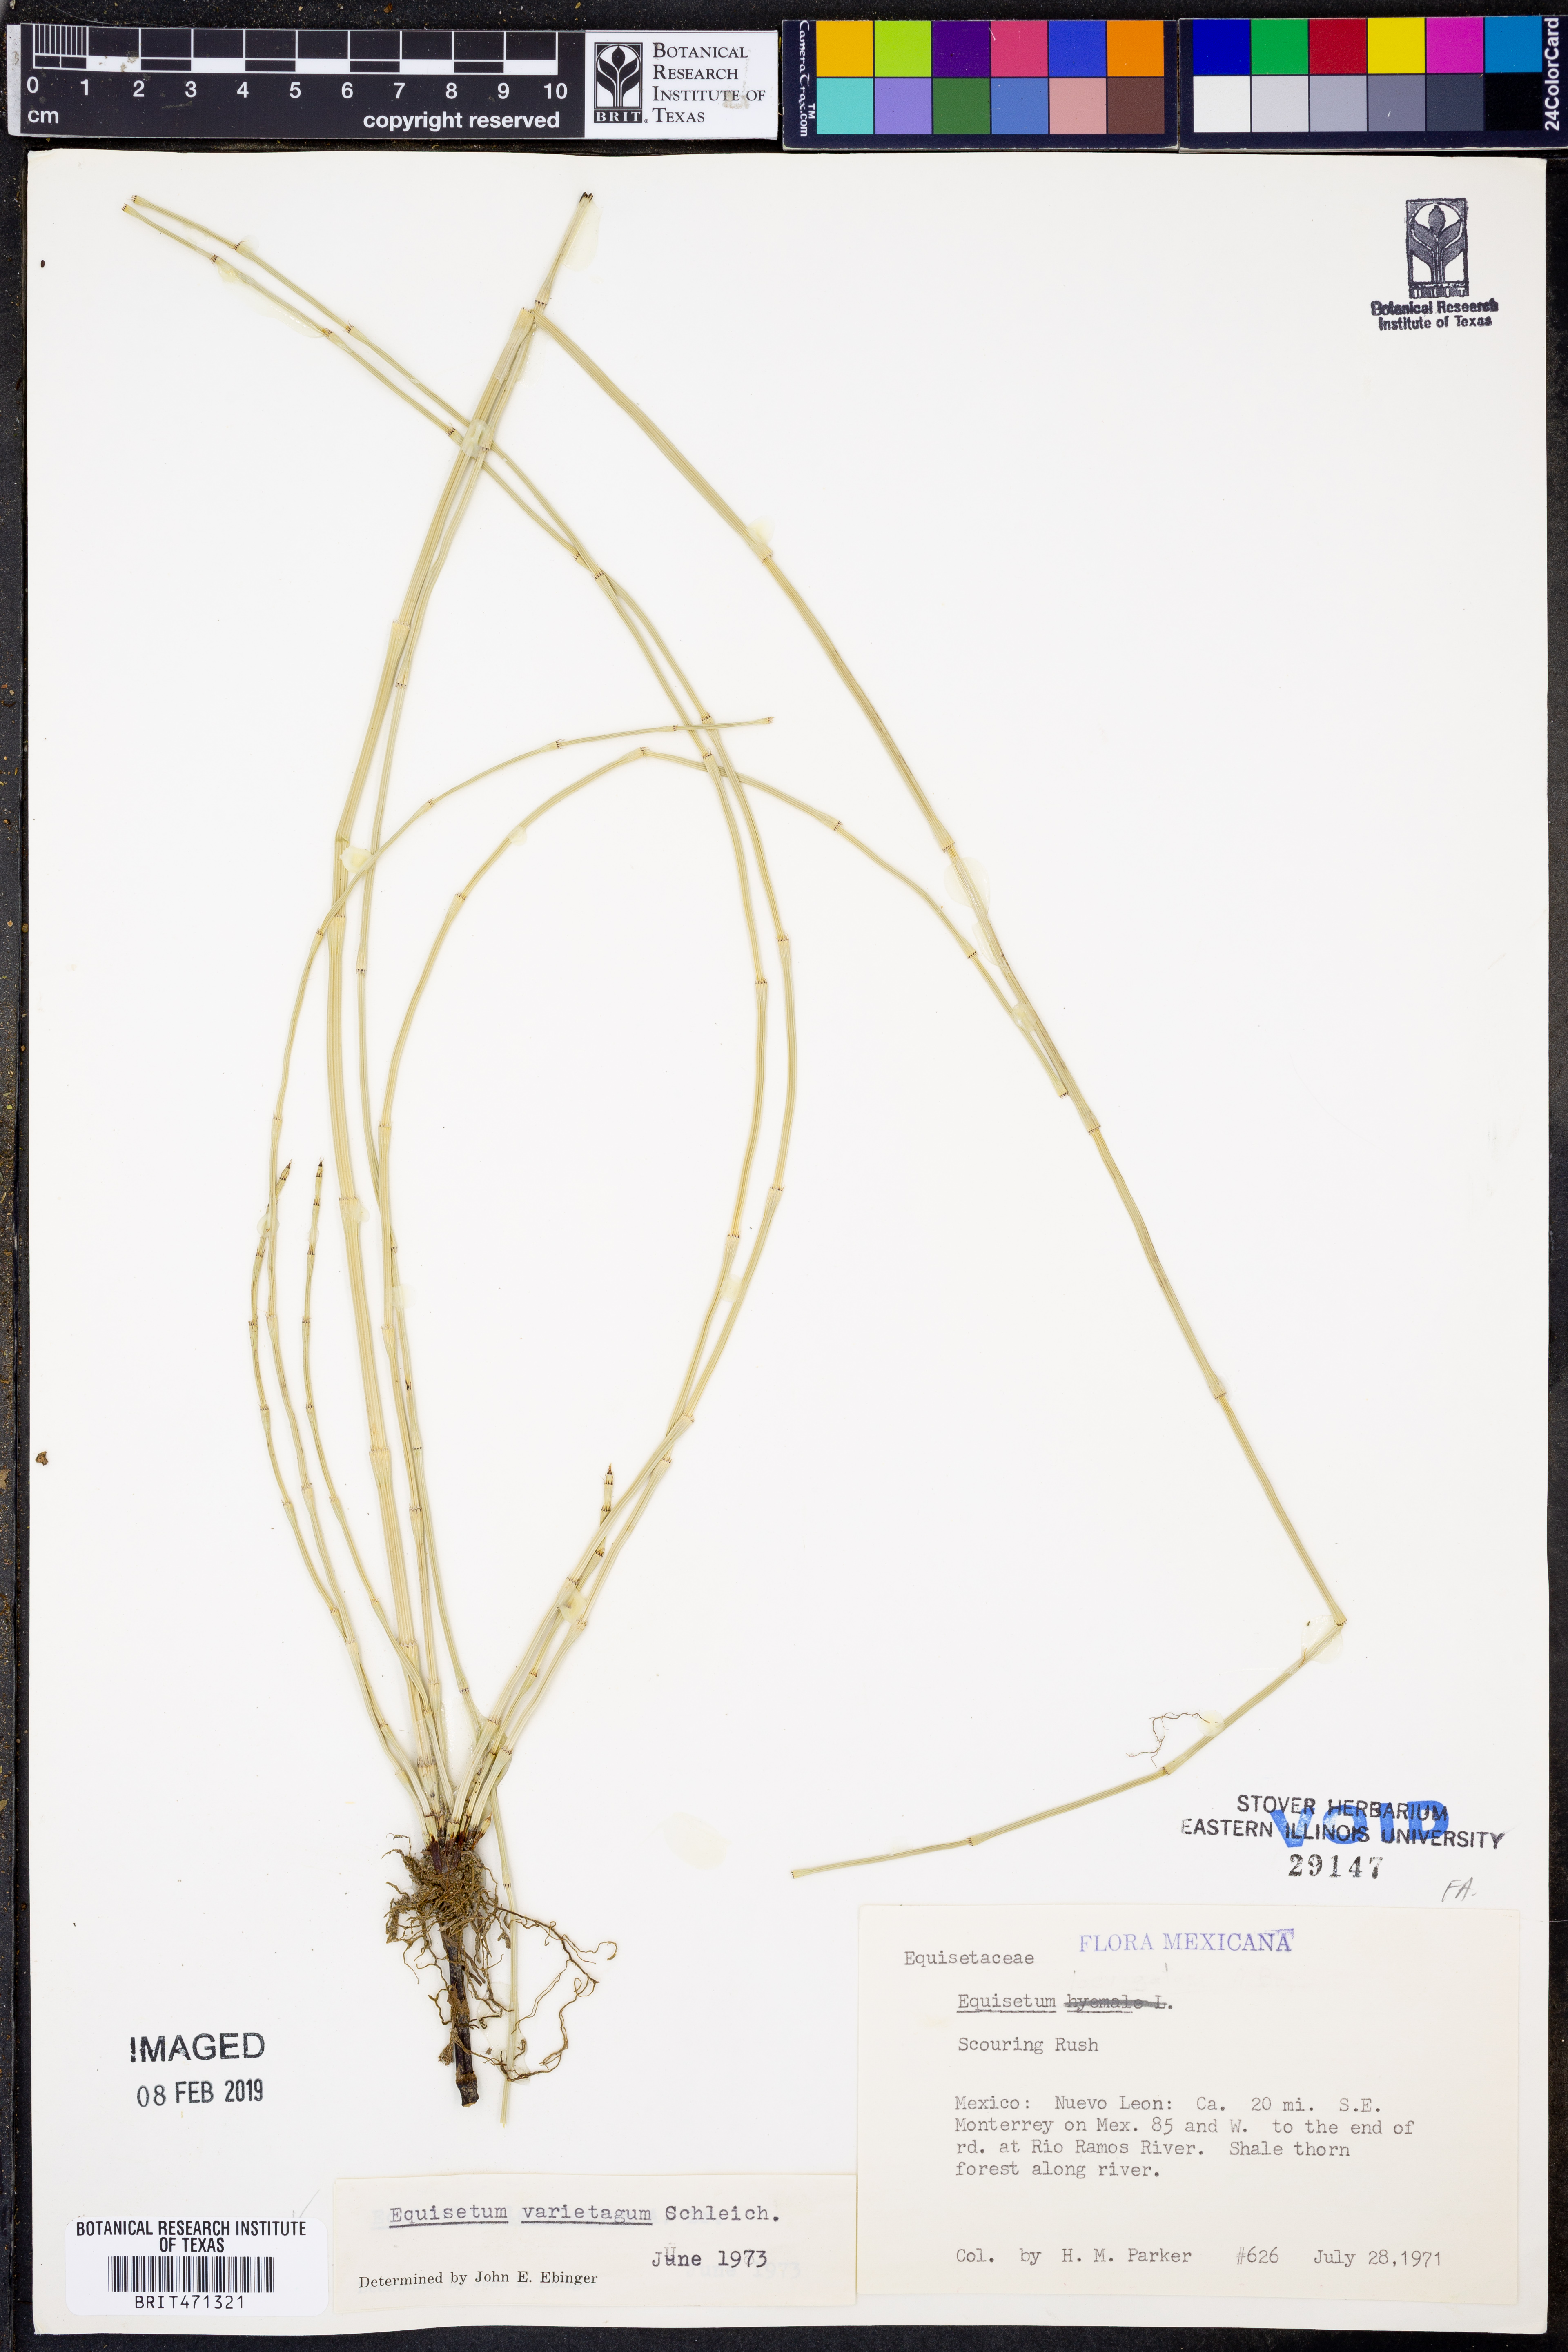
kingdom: Plantae
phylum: Tracheophyta
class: Polypodiopsida
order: Equisetales
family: Equisetaceae
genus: Equisetum
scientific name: Equisetum variegatum
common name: Variegated horsetail
